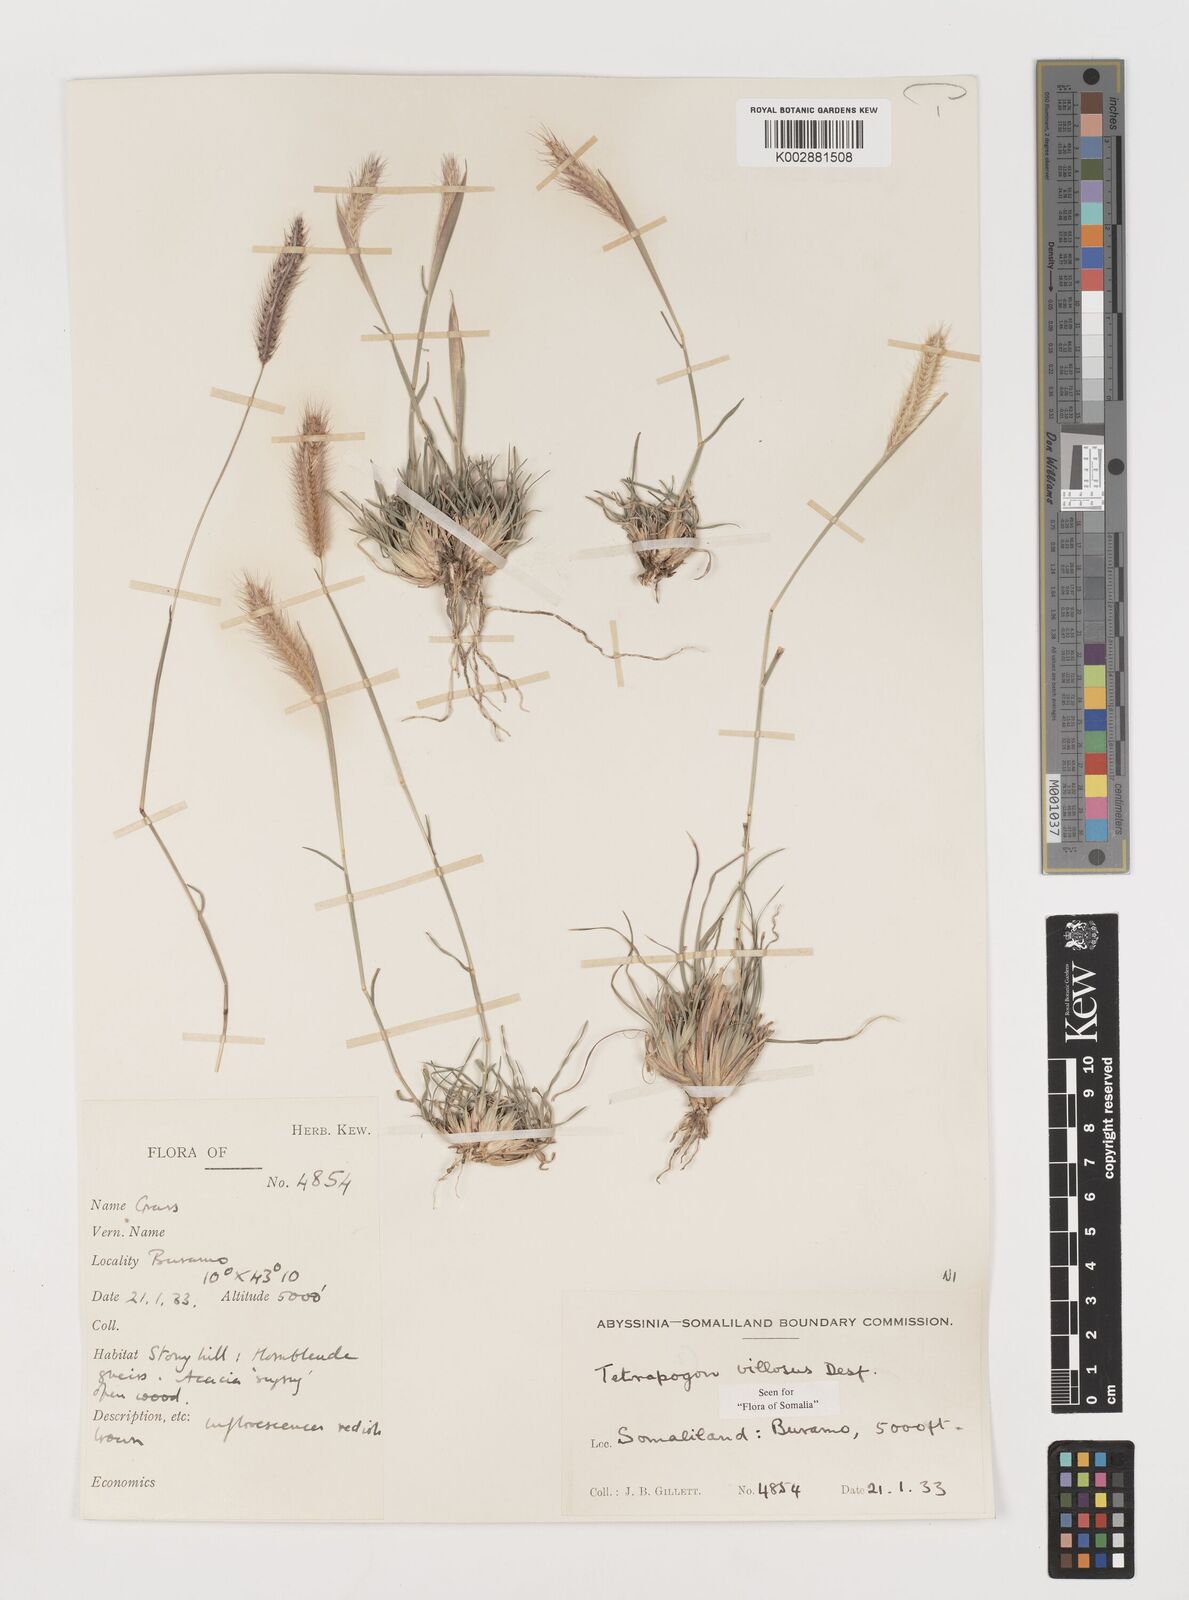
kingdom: Plantae
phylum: Tracheophyta
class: Liliopsida
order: Poales
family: Poaceae
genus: Tetrapogon
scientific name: Tetrapogon villosus
